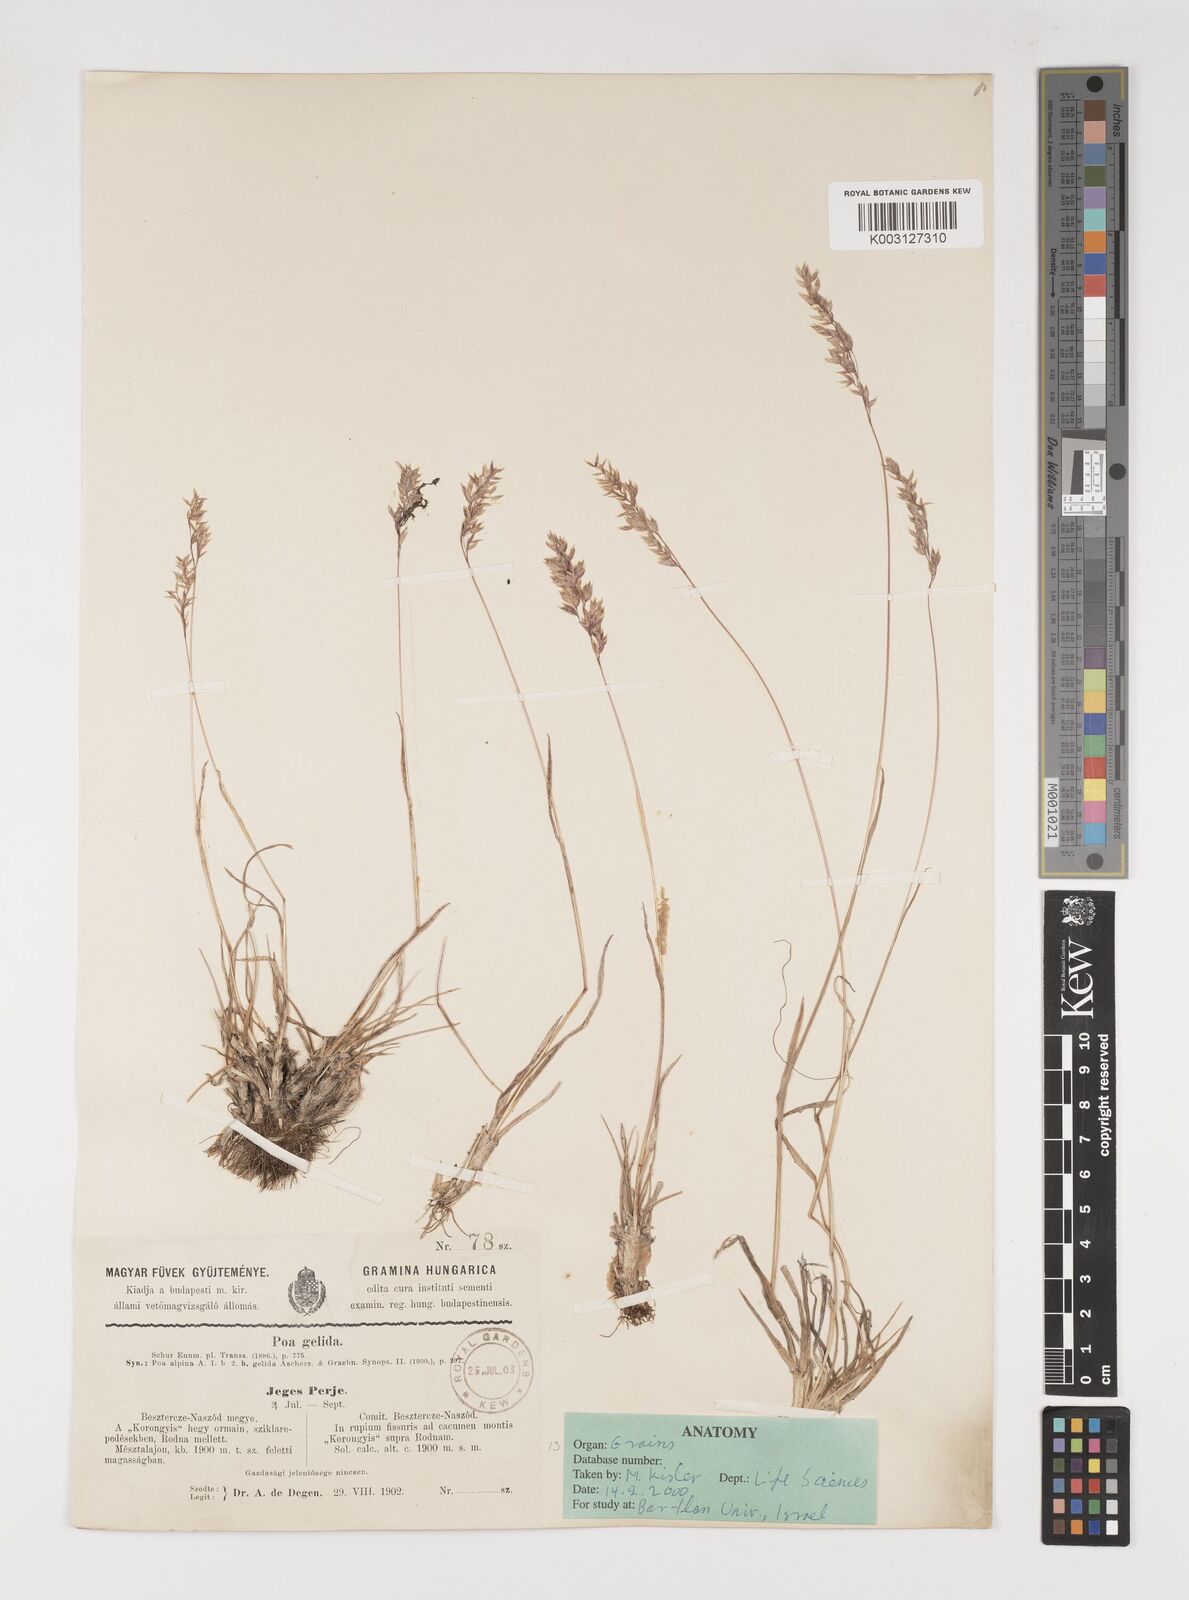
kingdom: Plantae
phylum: Tracheophyta
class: Liliopsida
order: Poales
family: Poaceae
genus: Poa
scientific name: Poa alpina
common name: Alpine bluegrass
